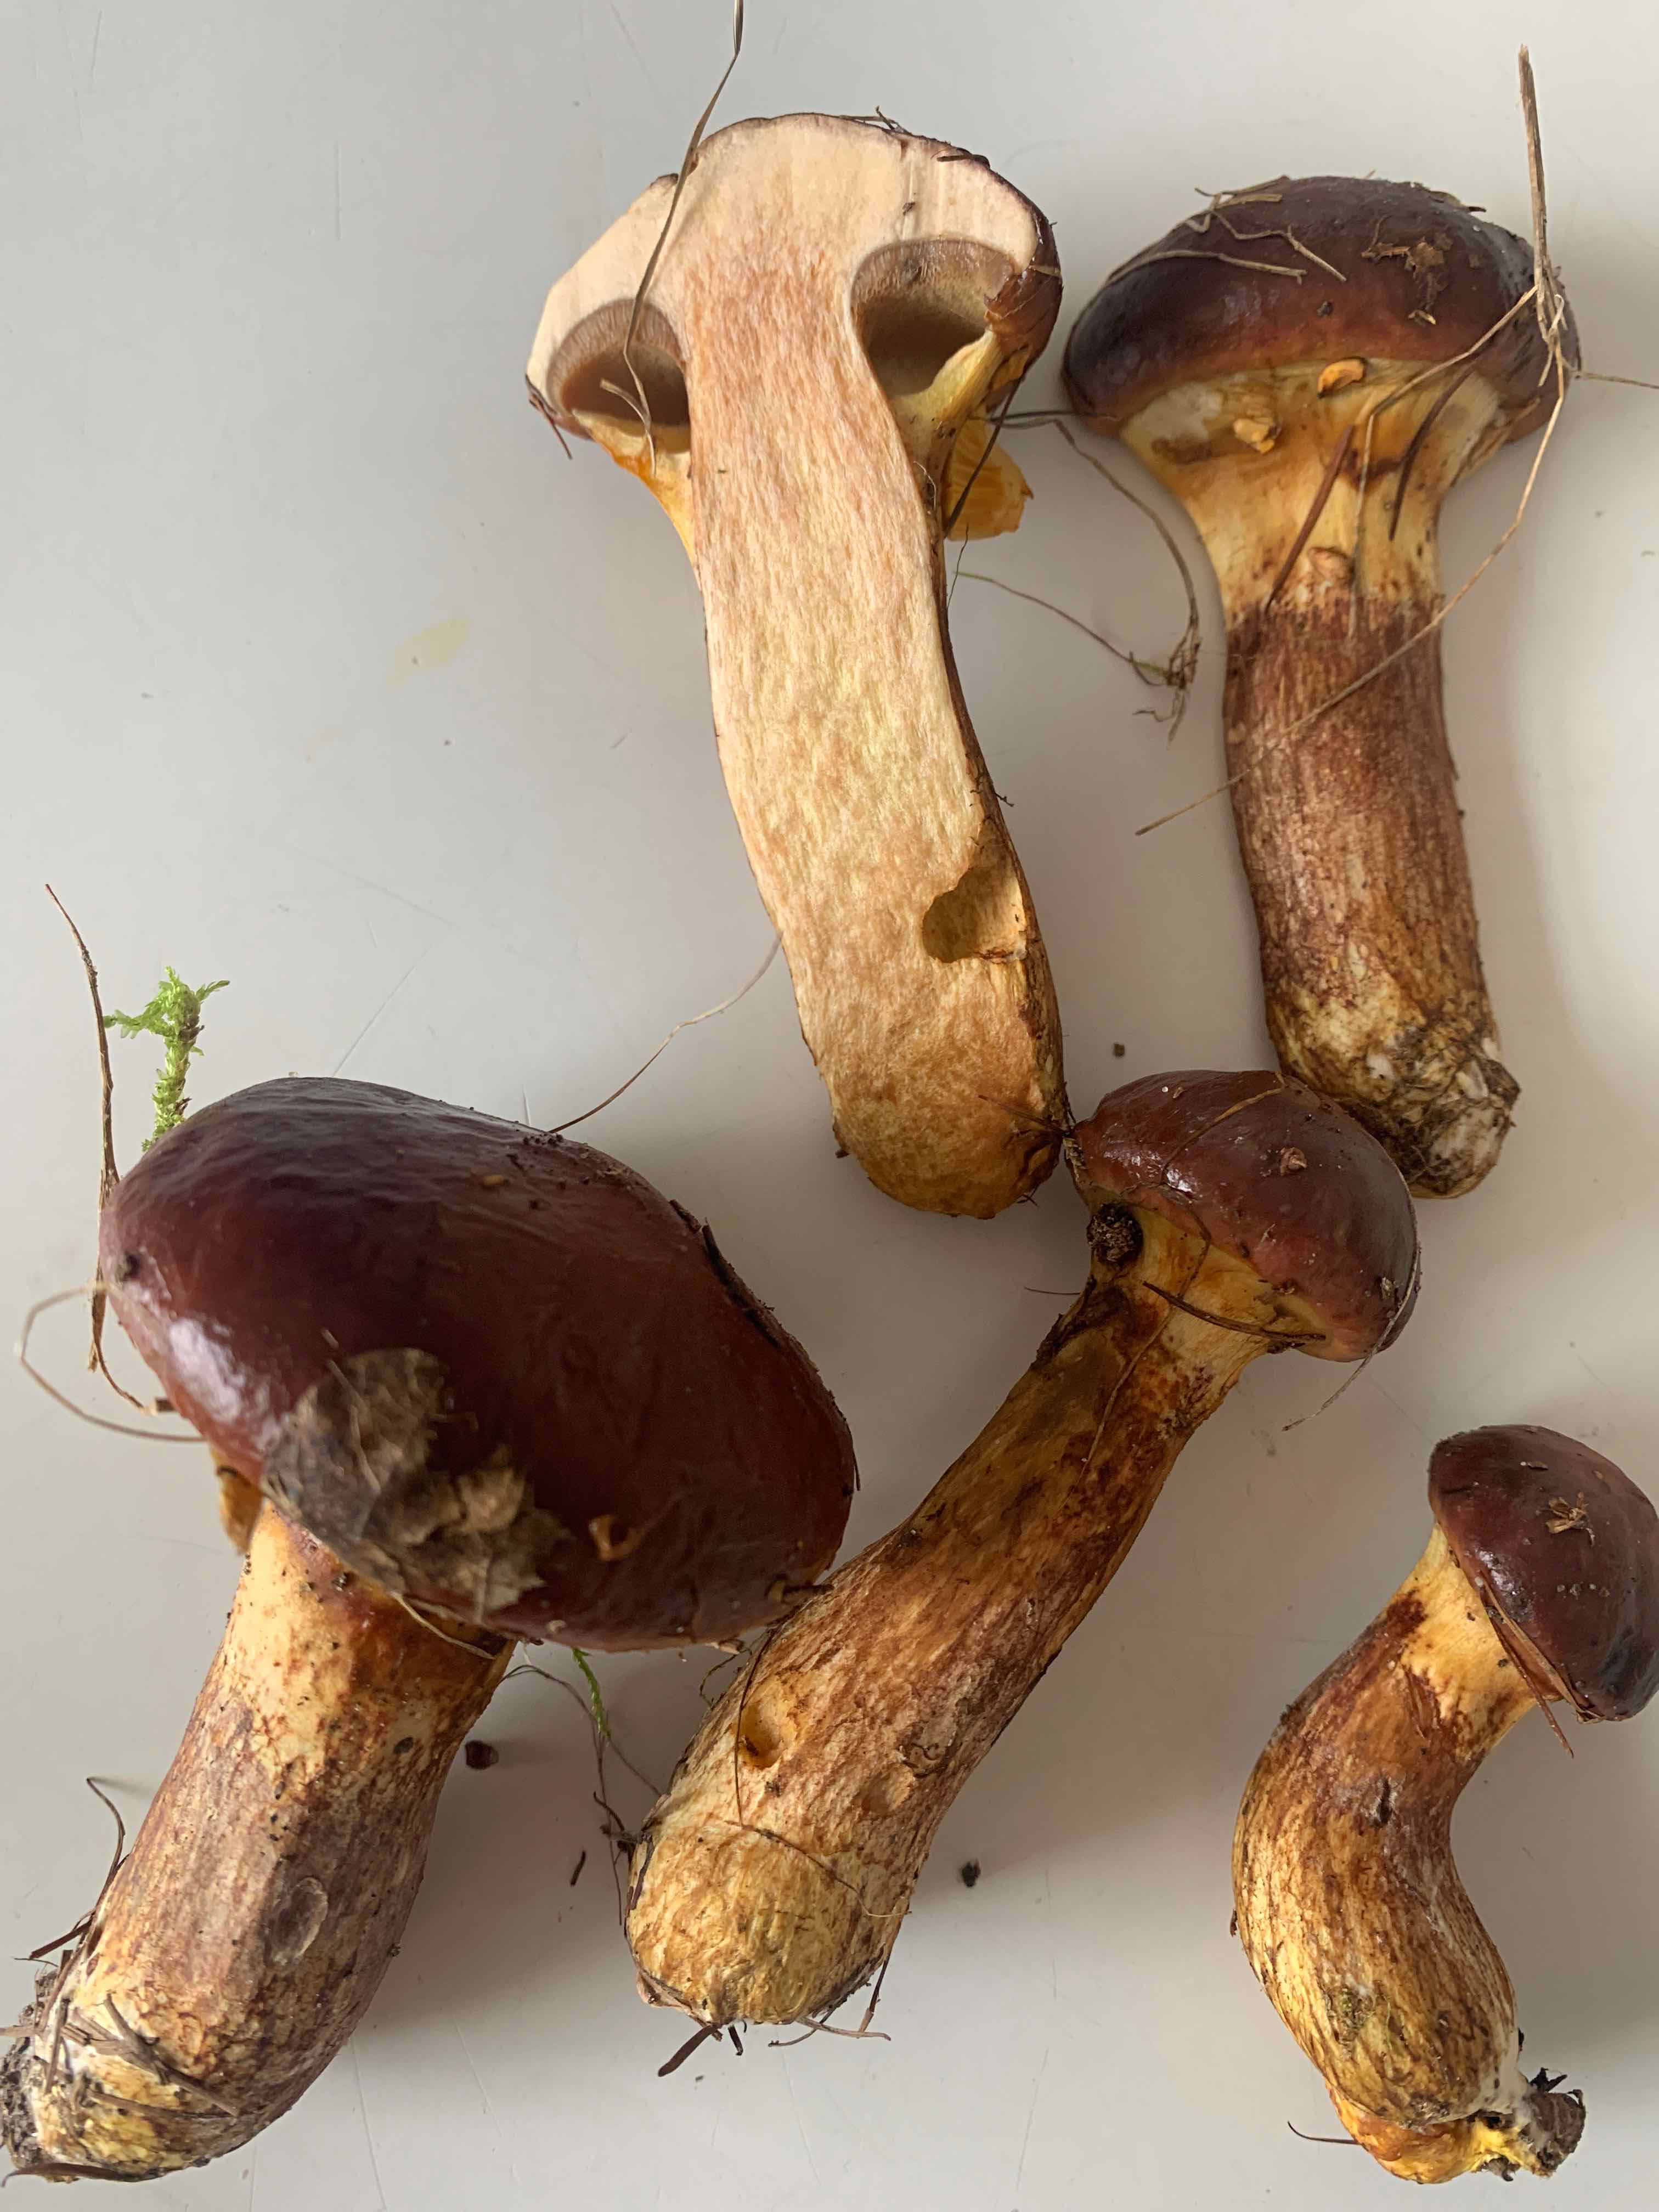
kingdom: Fungi
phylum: Basidiomycota
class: Agaricomycetes
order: Boletales
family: Suillaceae
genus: Suillus
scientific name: Suillus grevillei
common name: Larch bolete
